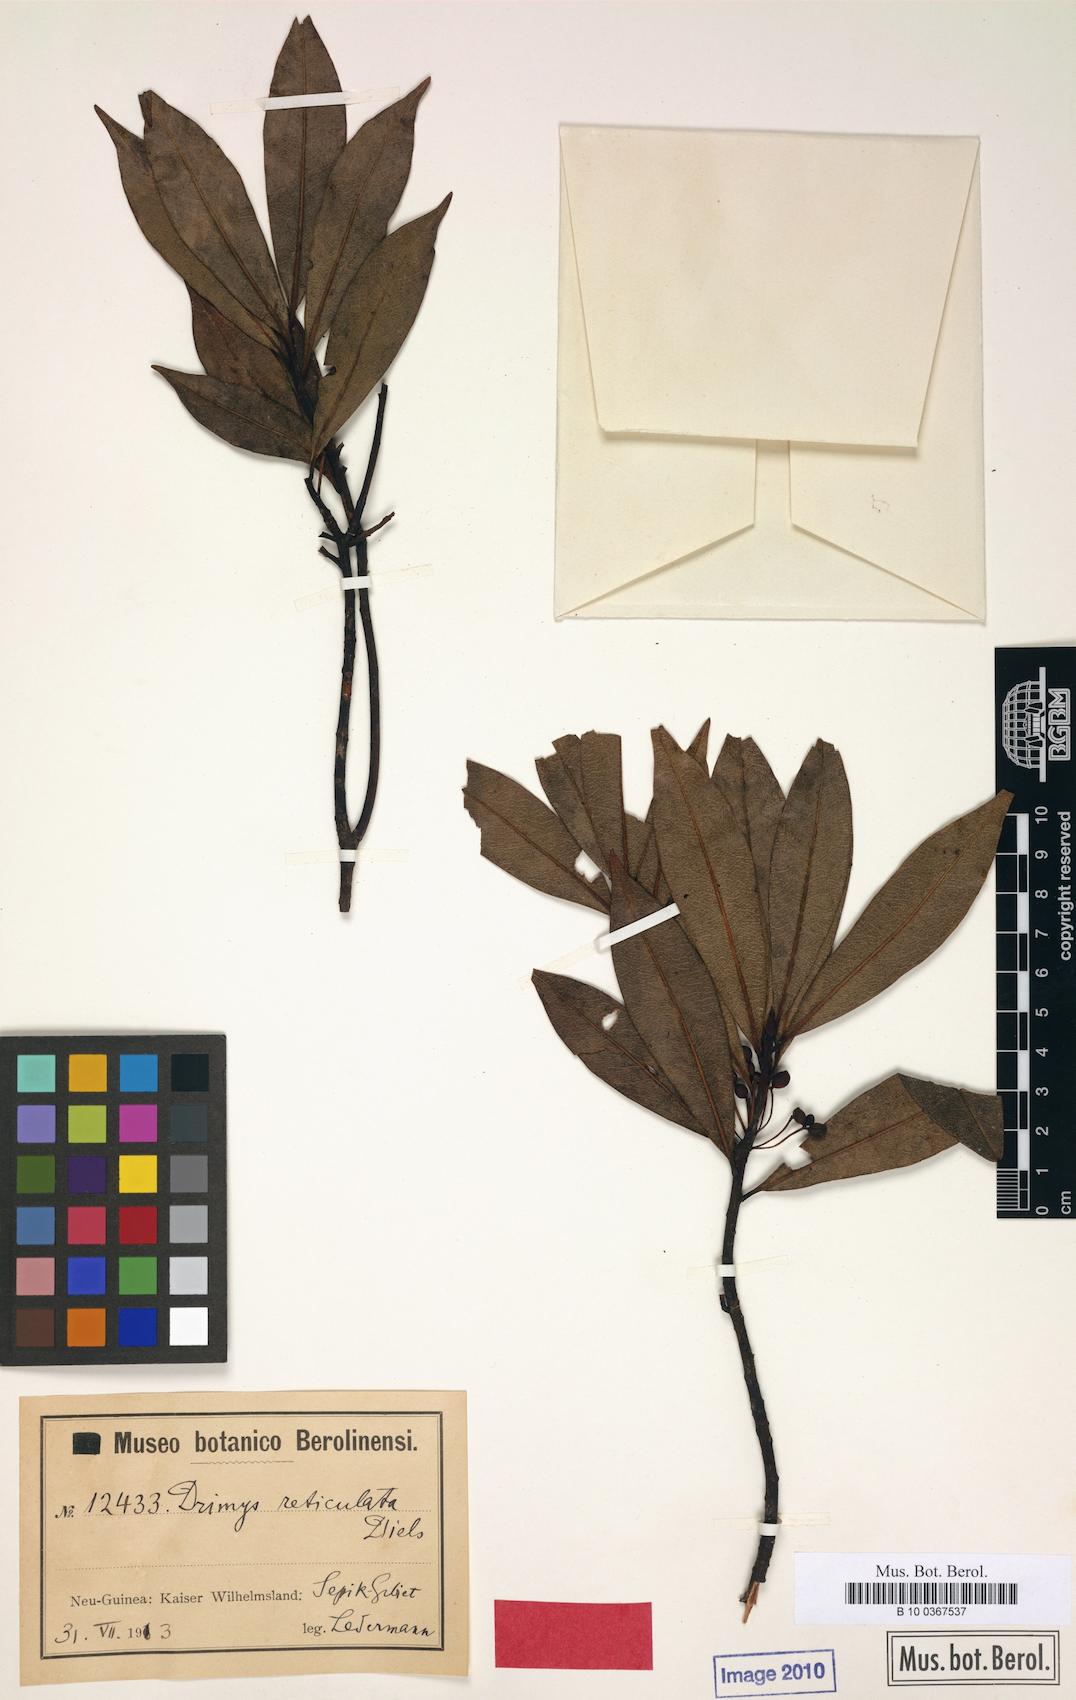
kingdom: Plantae
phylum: Tracheophyta
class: Magnoliopsida
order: Canellales
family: Winteraceae
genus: Drimys
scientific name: Drimys piperita
